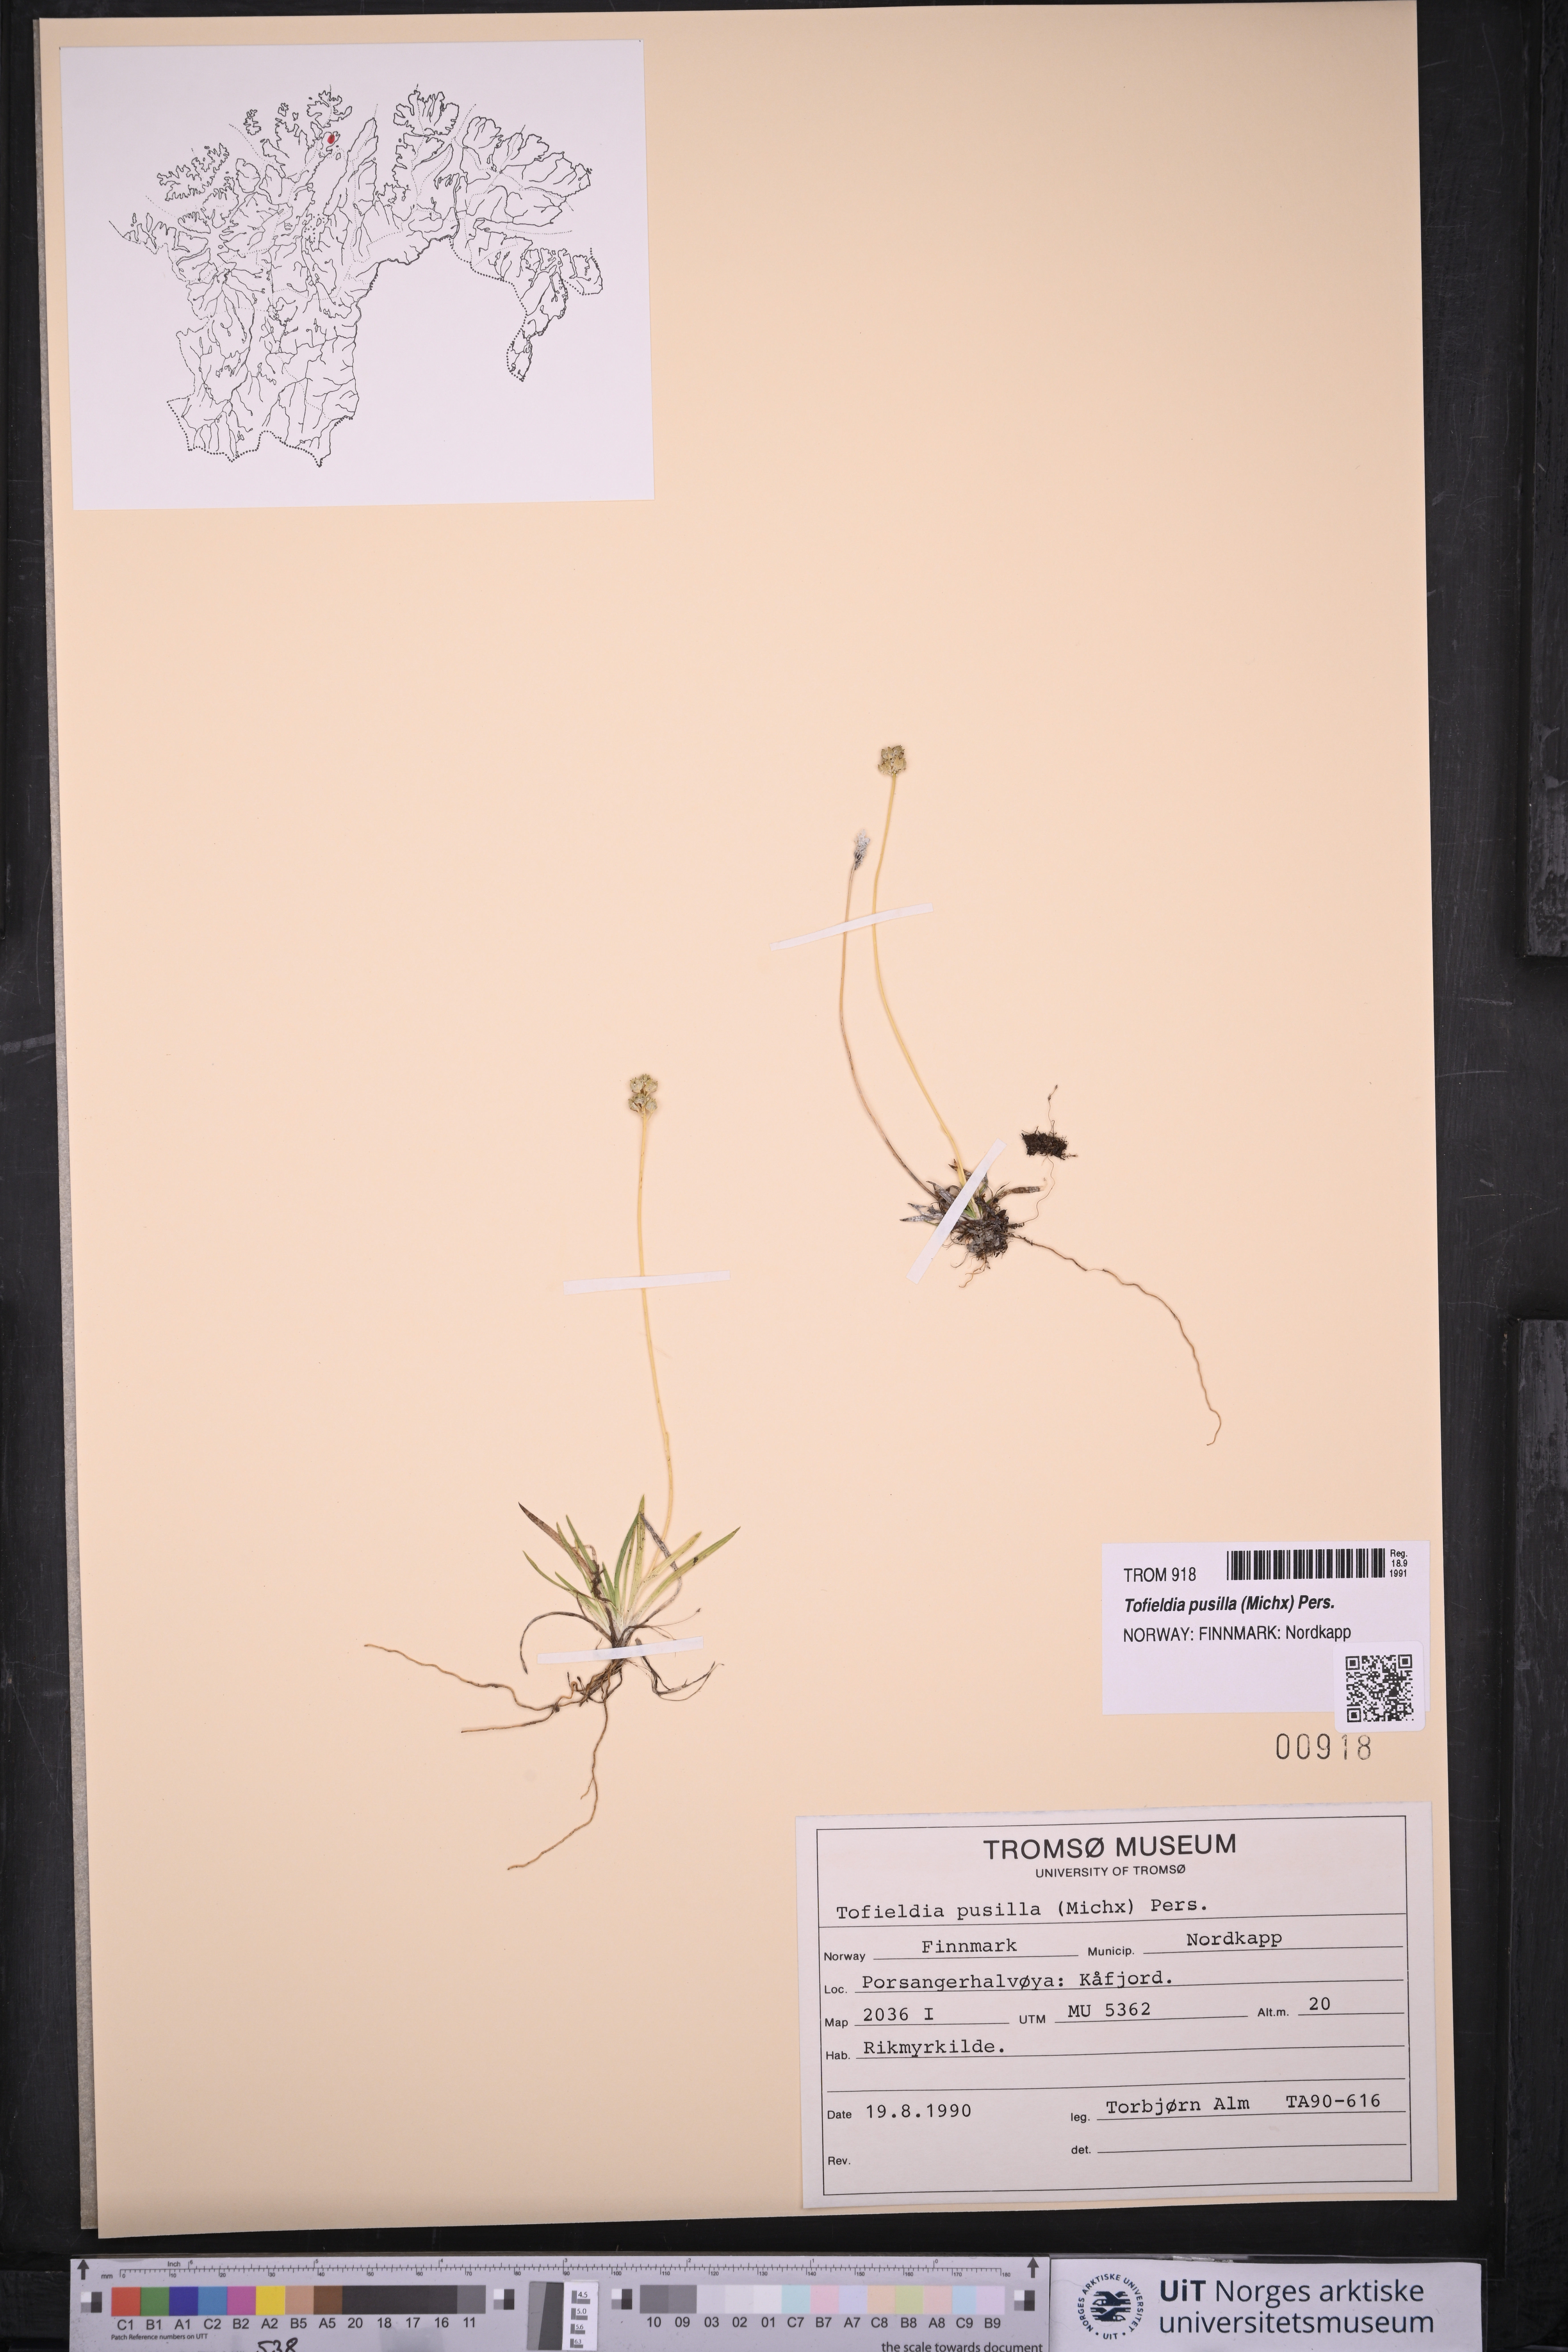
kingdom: Plantae
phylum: Tracheophyta
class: Liliopsida
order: Alismatales
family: Tofieldiaceae
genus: Tofieldia
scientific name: Tofieldia pusilla
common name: Scottish false asphodel
